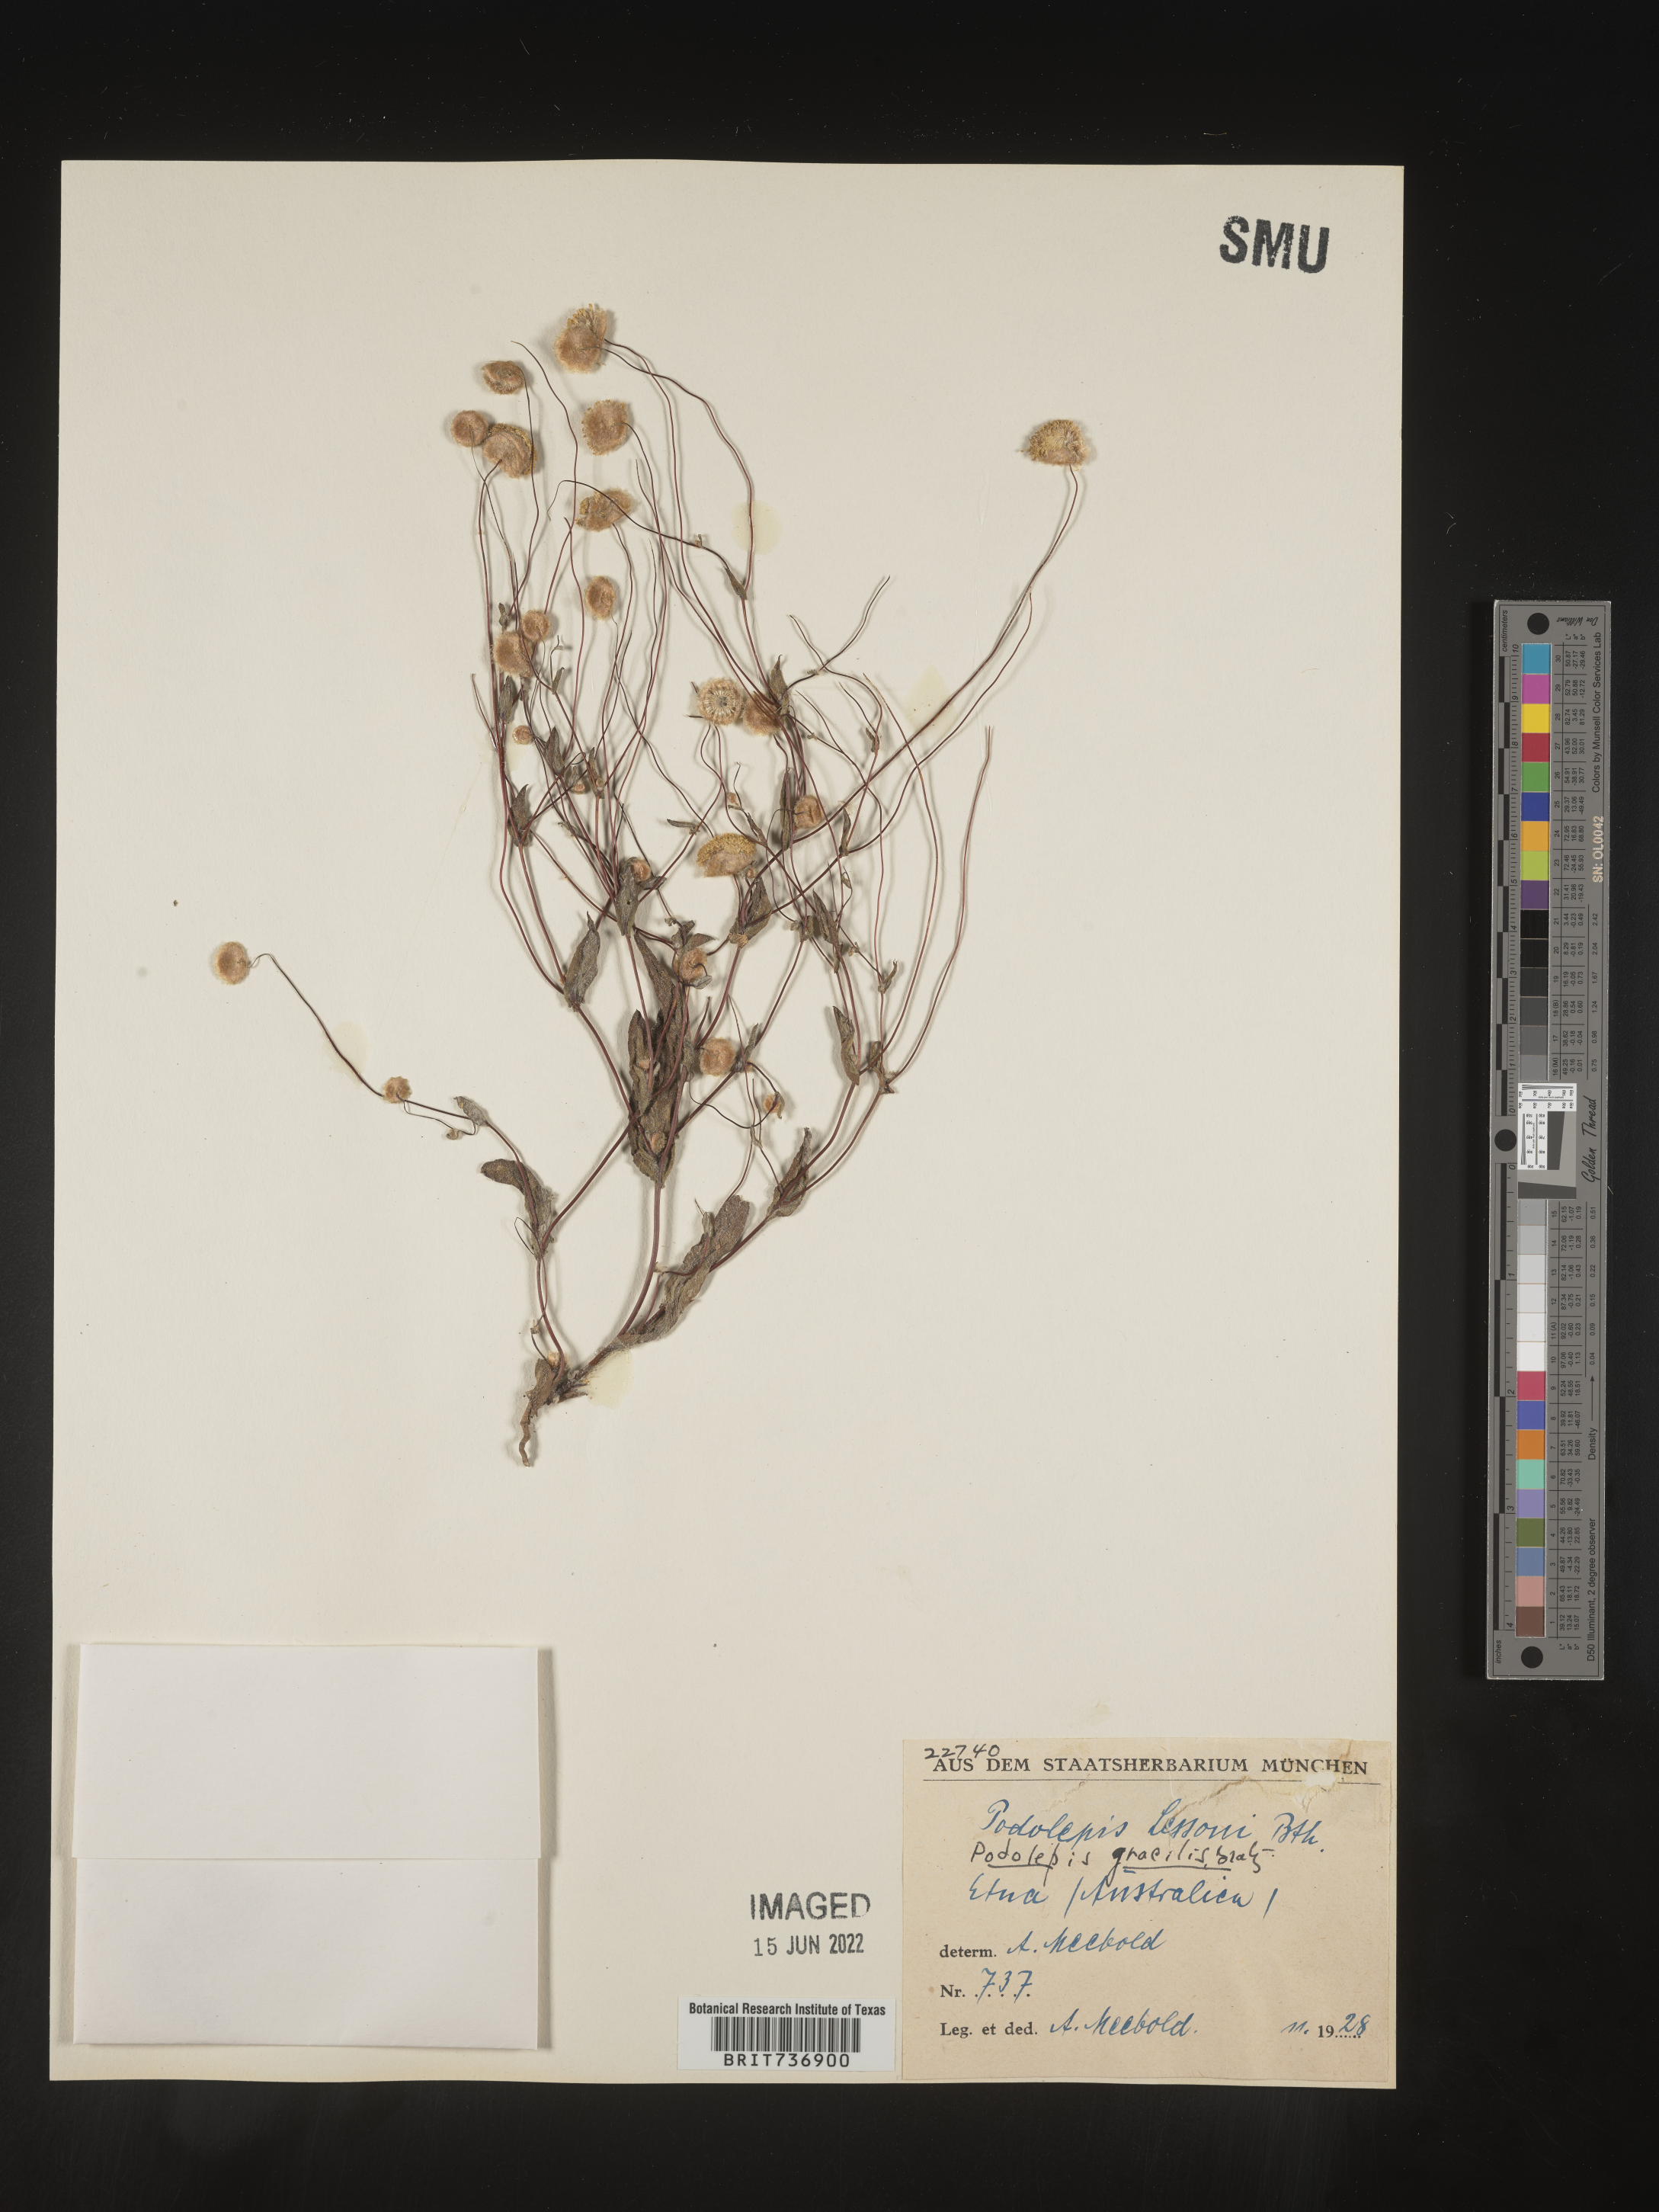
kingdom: Plantae
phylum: Tracheophyta
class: Magnoliopsida
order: Asterales
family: Asteraceae
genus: Podolepis
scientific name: Podolepis
